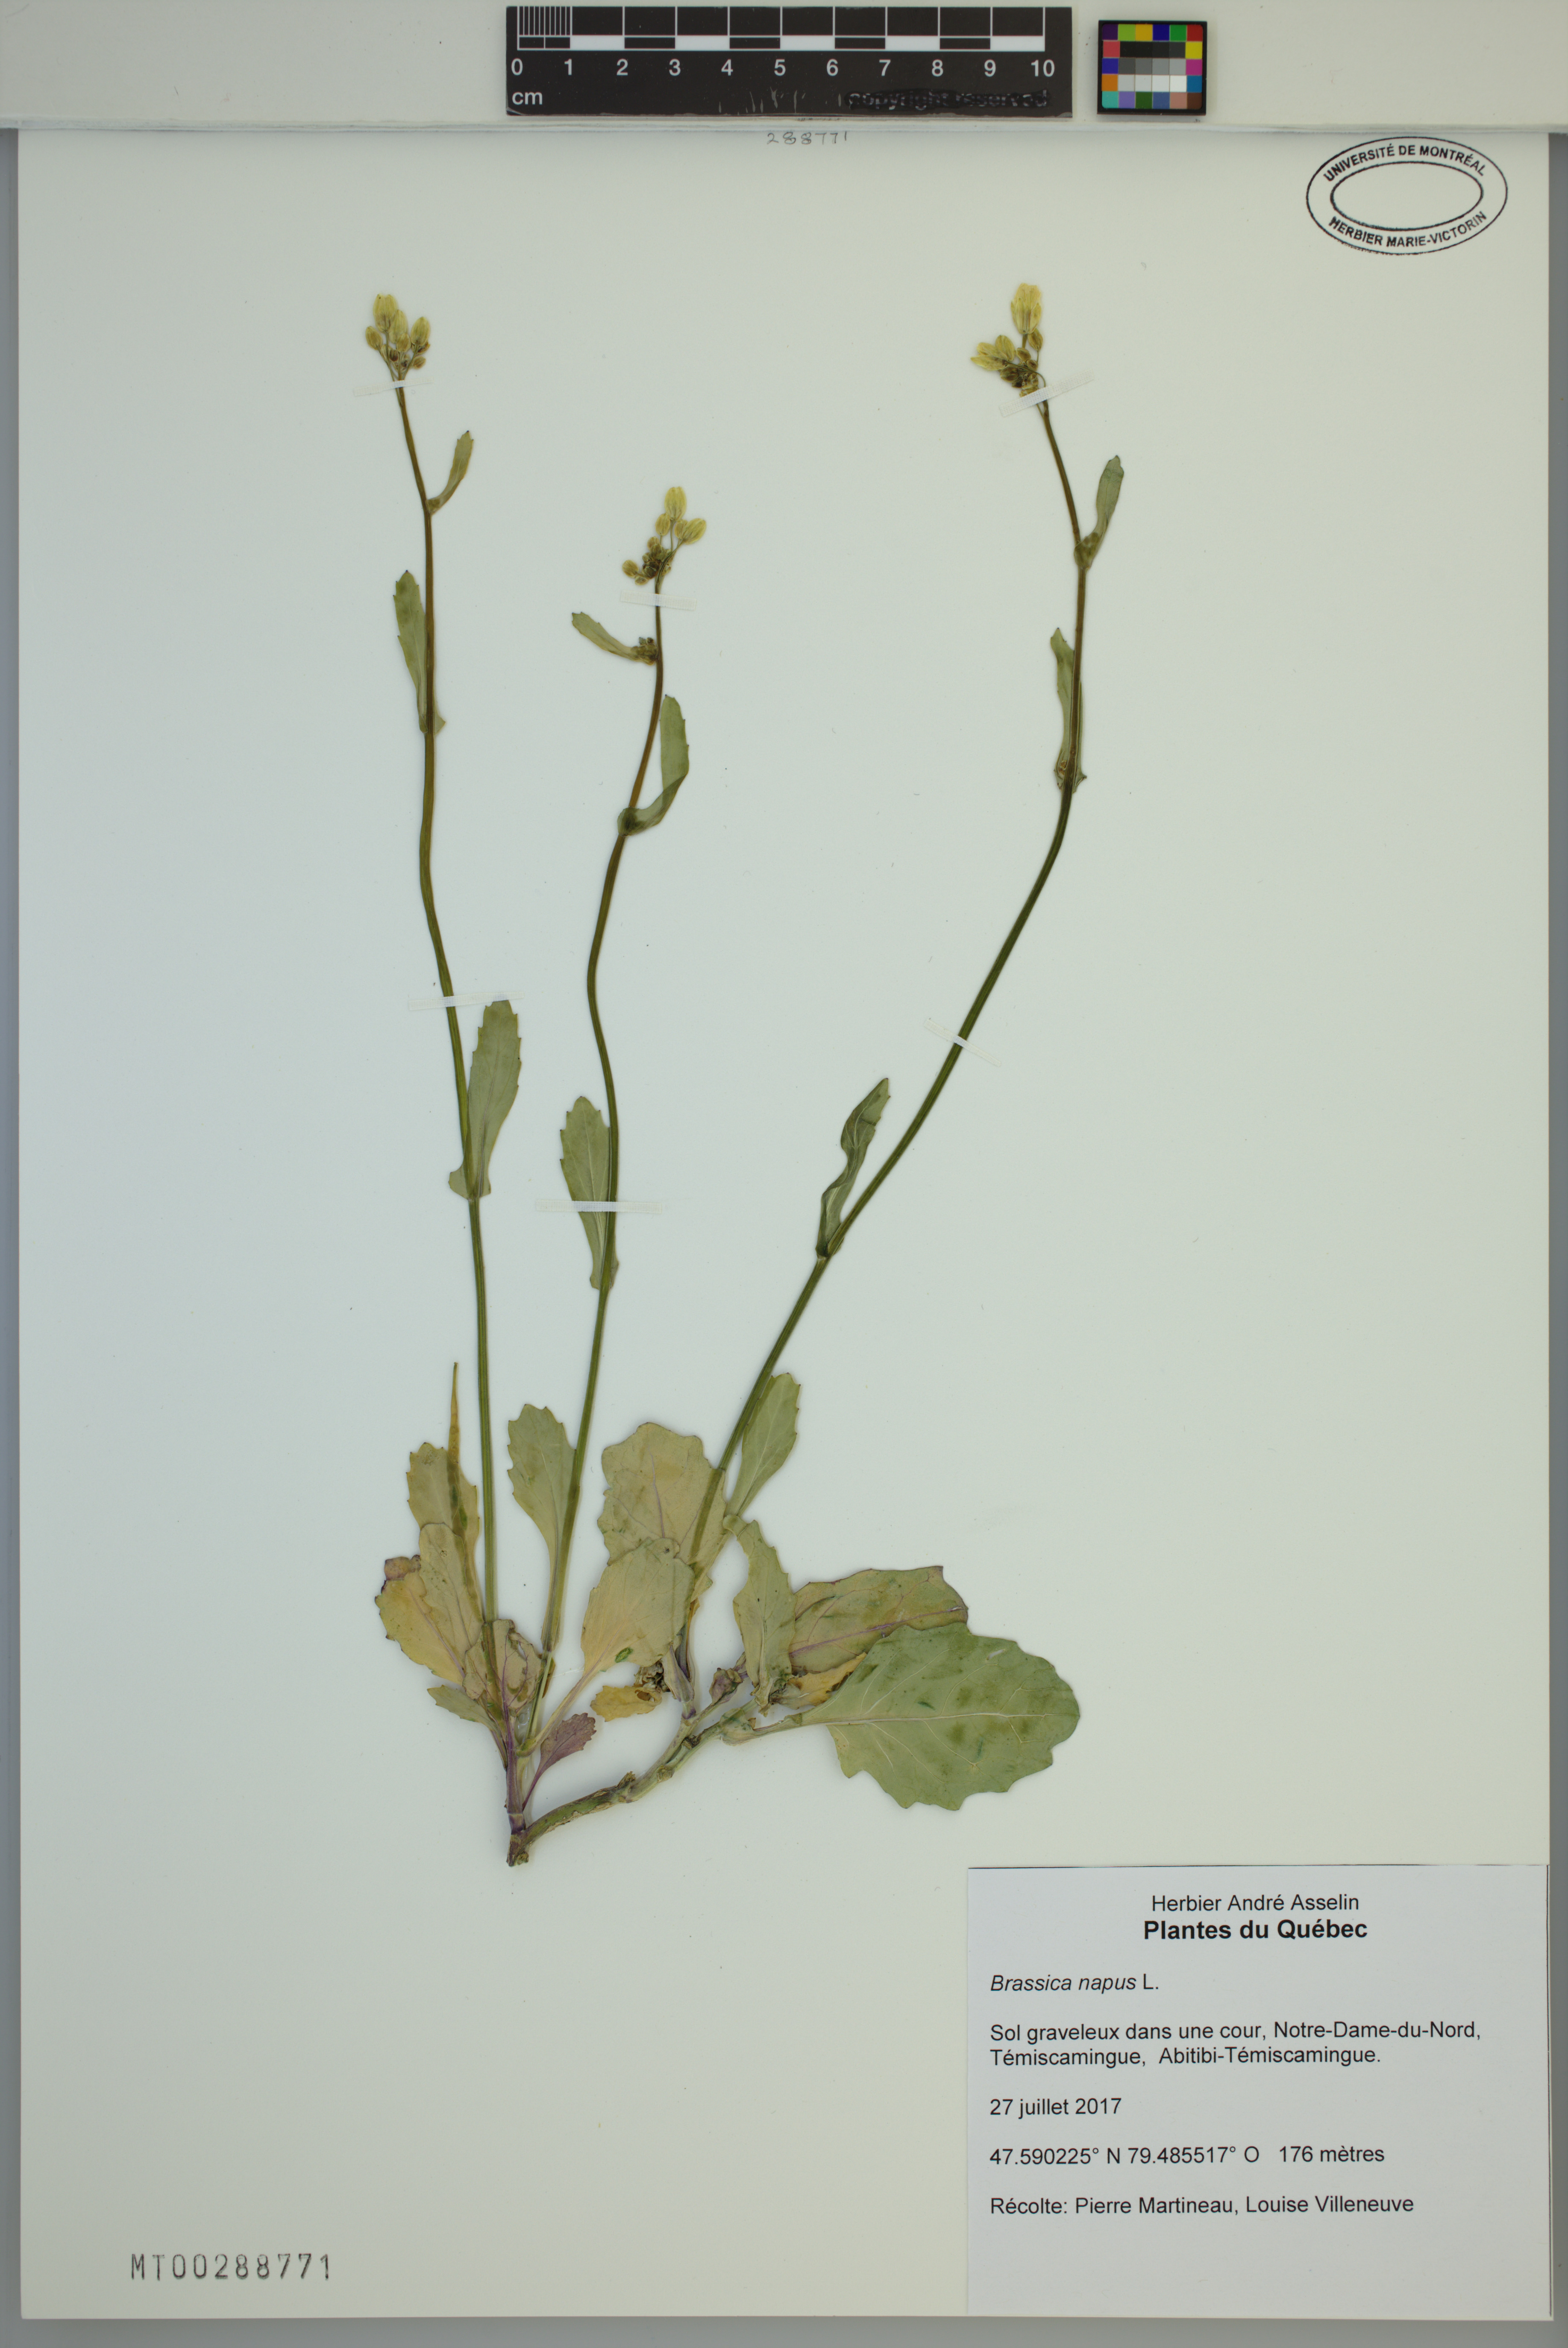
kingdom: Plantae
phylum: Tracheophyta
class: Magnoliopsida
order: Brassicales
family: Brassicaceae
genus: Brassica
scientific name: Brassica napus
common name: Rape
